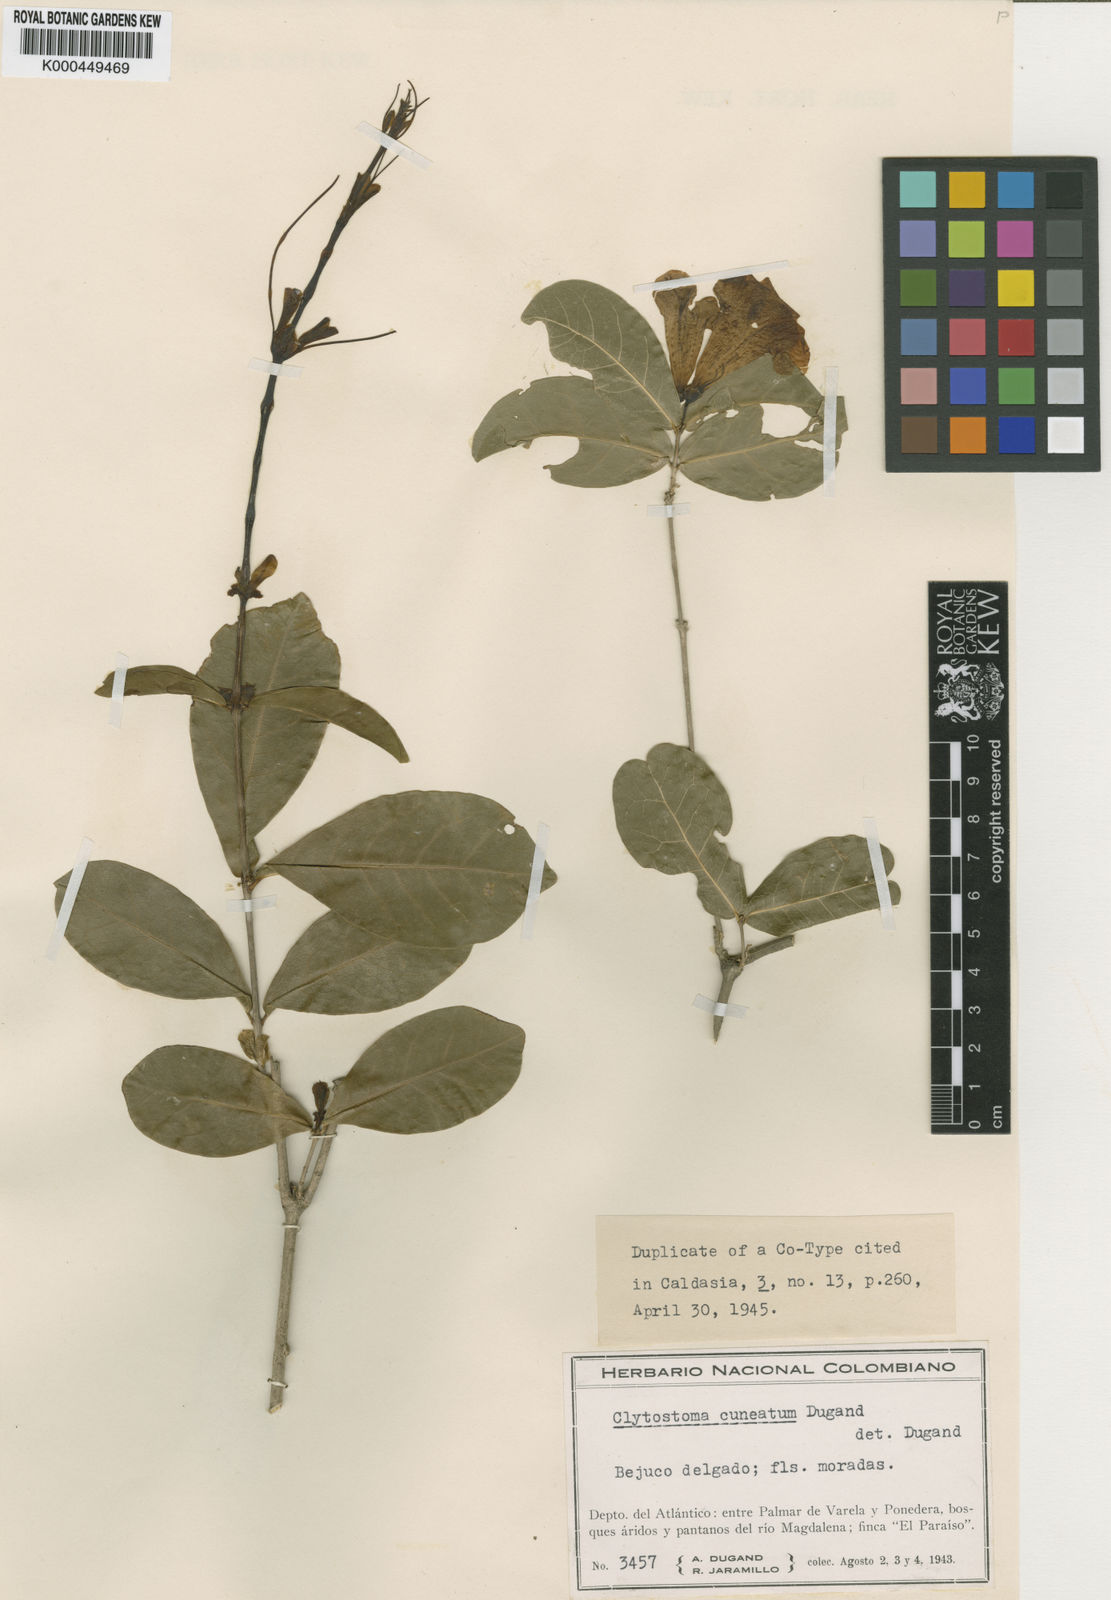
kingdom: Plantae
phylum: Tracheophyta
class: Magnoliopsida
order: Lamiales
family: Bignoniaceae
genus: Bignonia
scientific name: Bignonia cuneata
